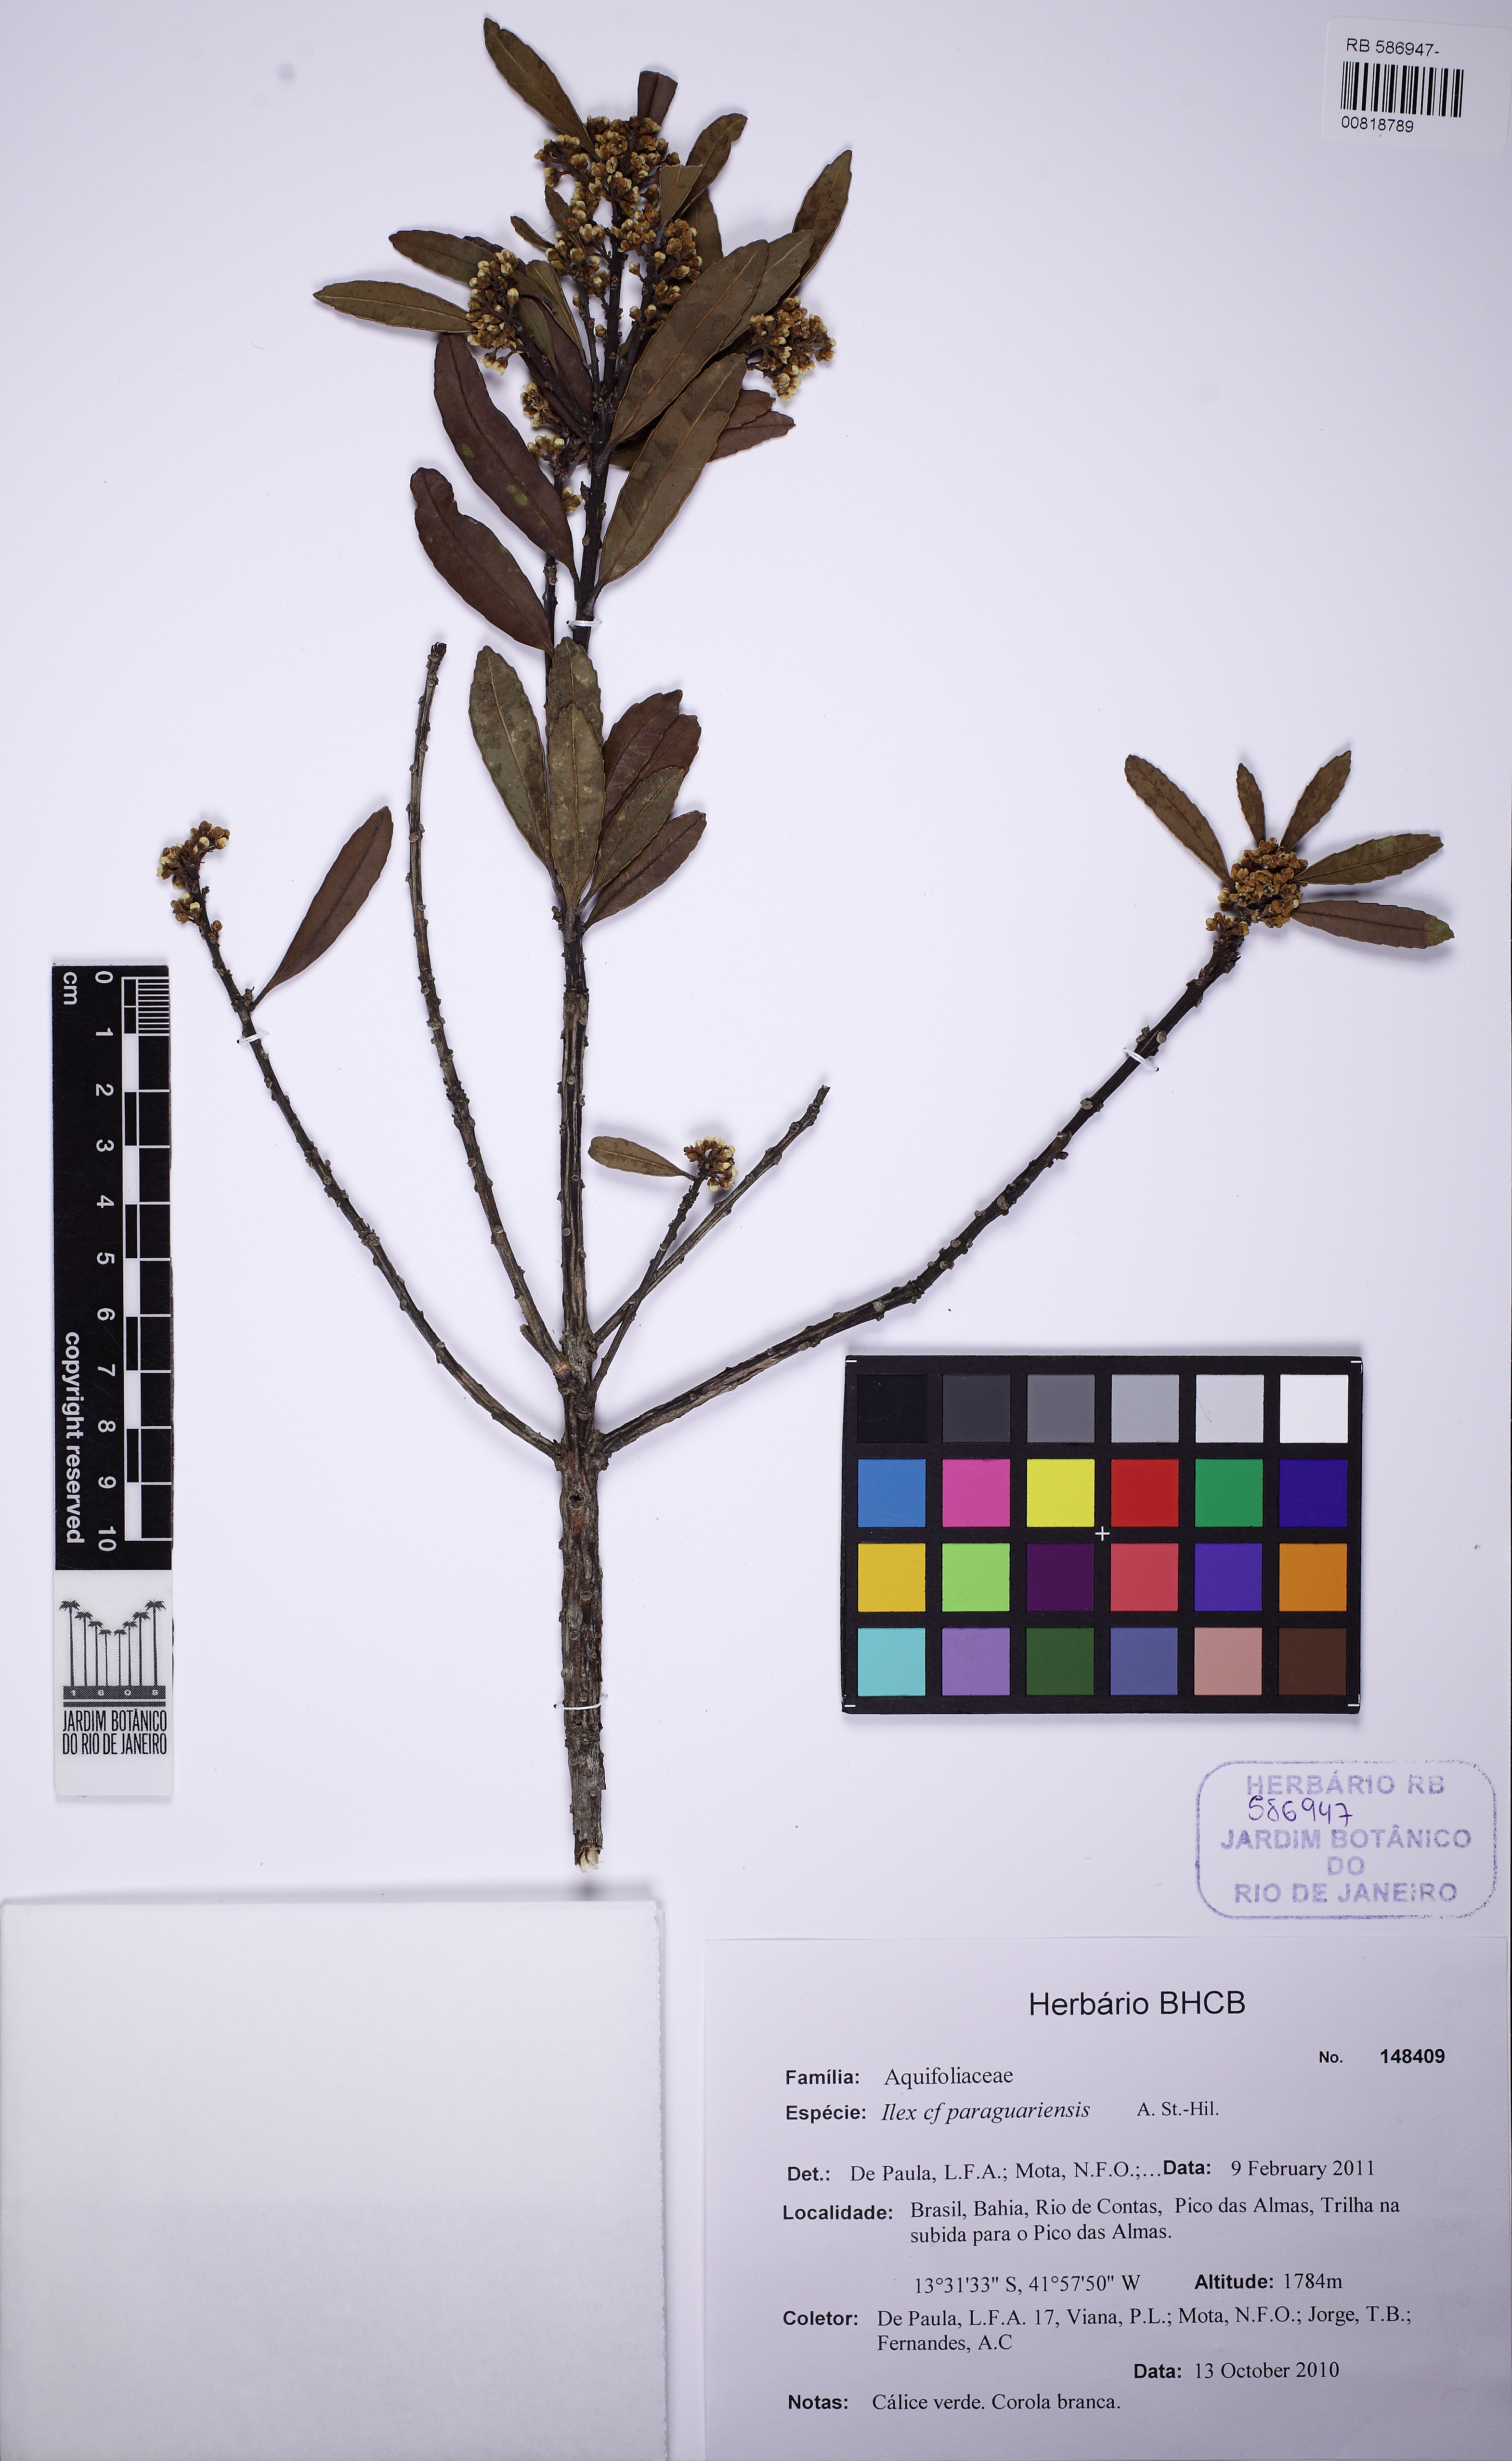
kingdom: Plantae
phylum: Tracheophyta
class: Magnoliopsida
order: Aquifoliales
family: Aquifoliaceae
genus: Ilex
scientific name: Ilex paraguariensis
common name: Paraguay tea
